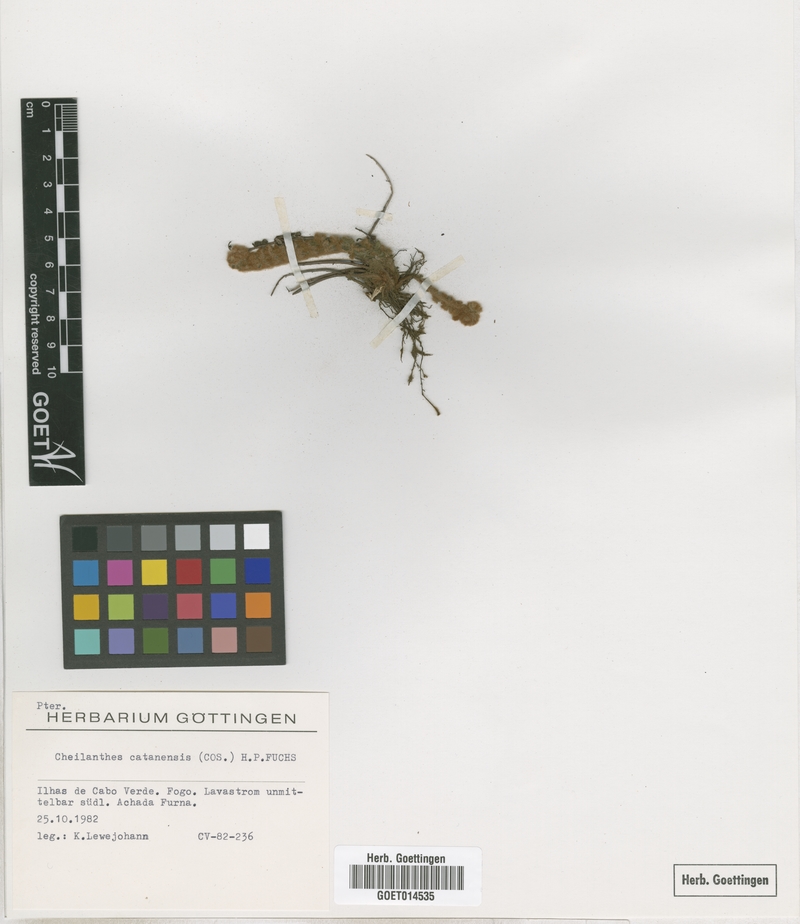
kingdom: Plantae
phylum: Tracheophyta
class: Polypodiopsida
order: Polypodiales
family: Pteridaceae
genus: Cosentinia
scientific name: Cosentinia vellea
